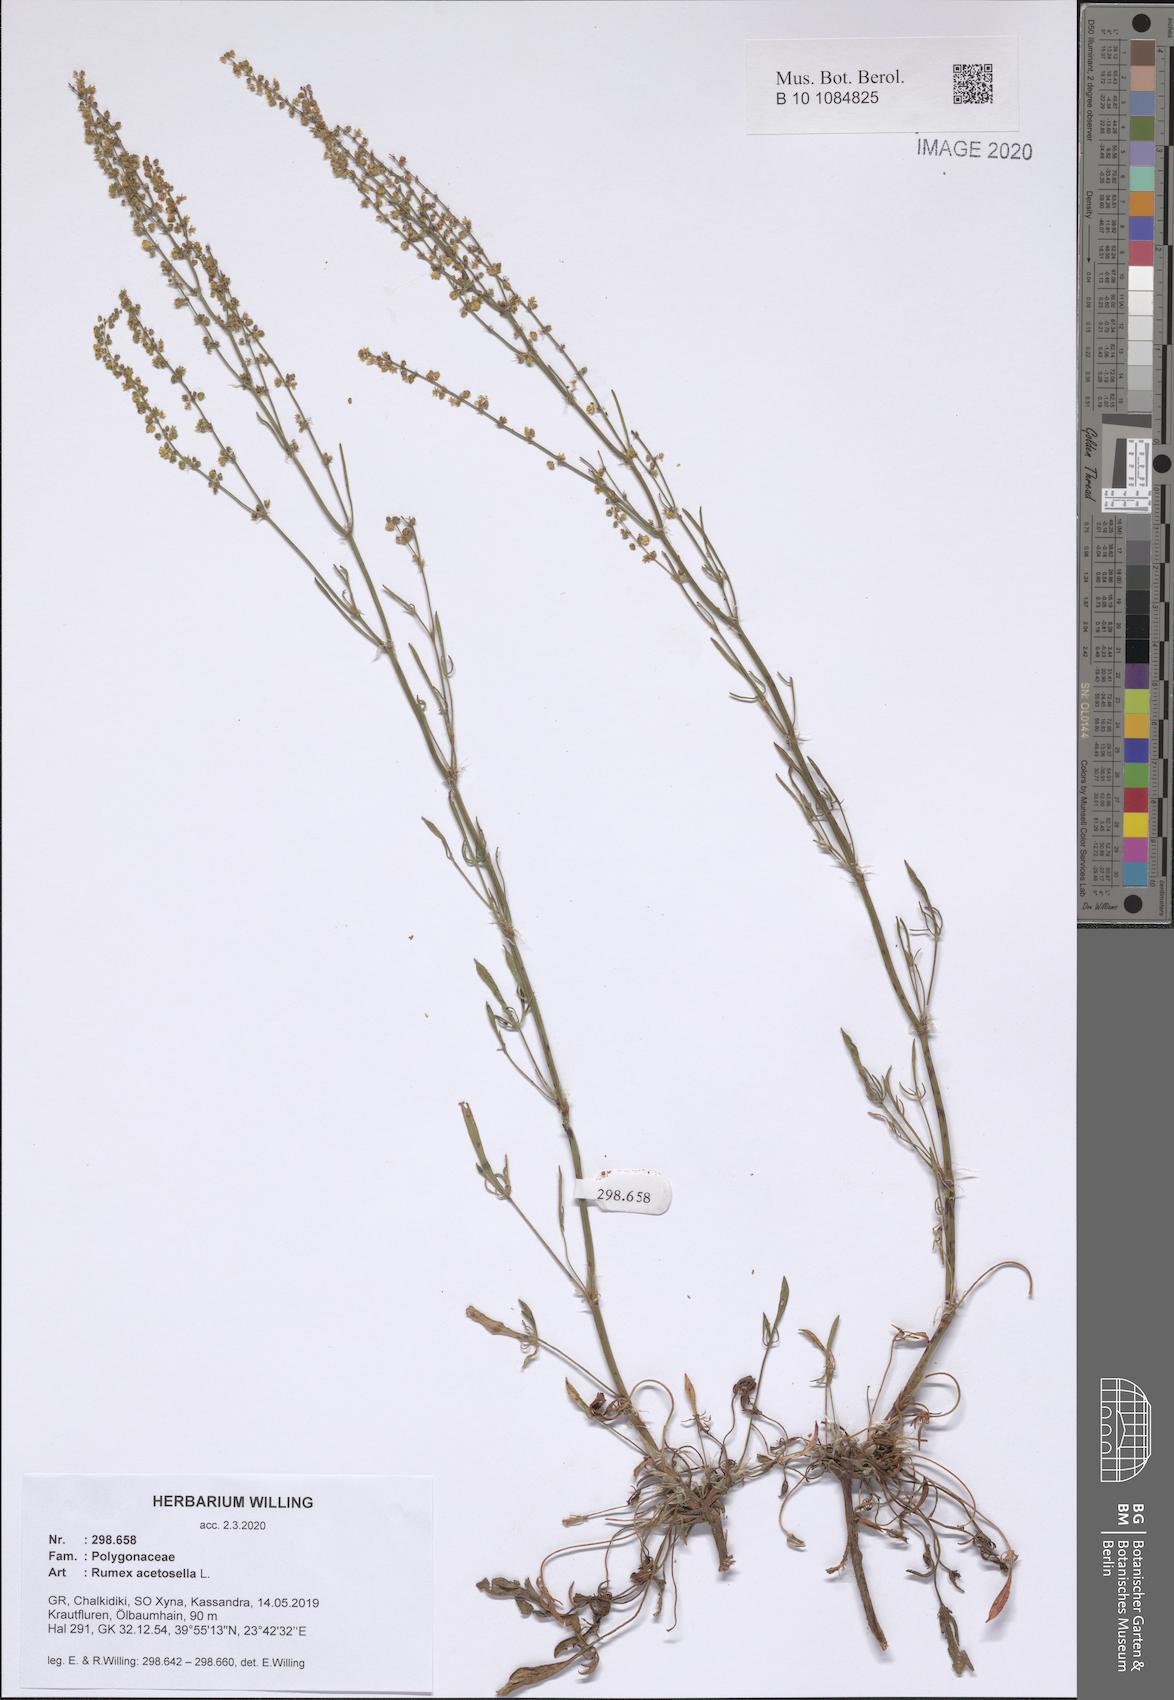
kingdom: Plantae
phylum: Tracheophyta
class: Magnoliopsida
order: Caryophyllales
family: Polygonaceae
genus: Rumex
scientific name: Rumex acetosella
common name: Common sheep sorrel
